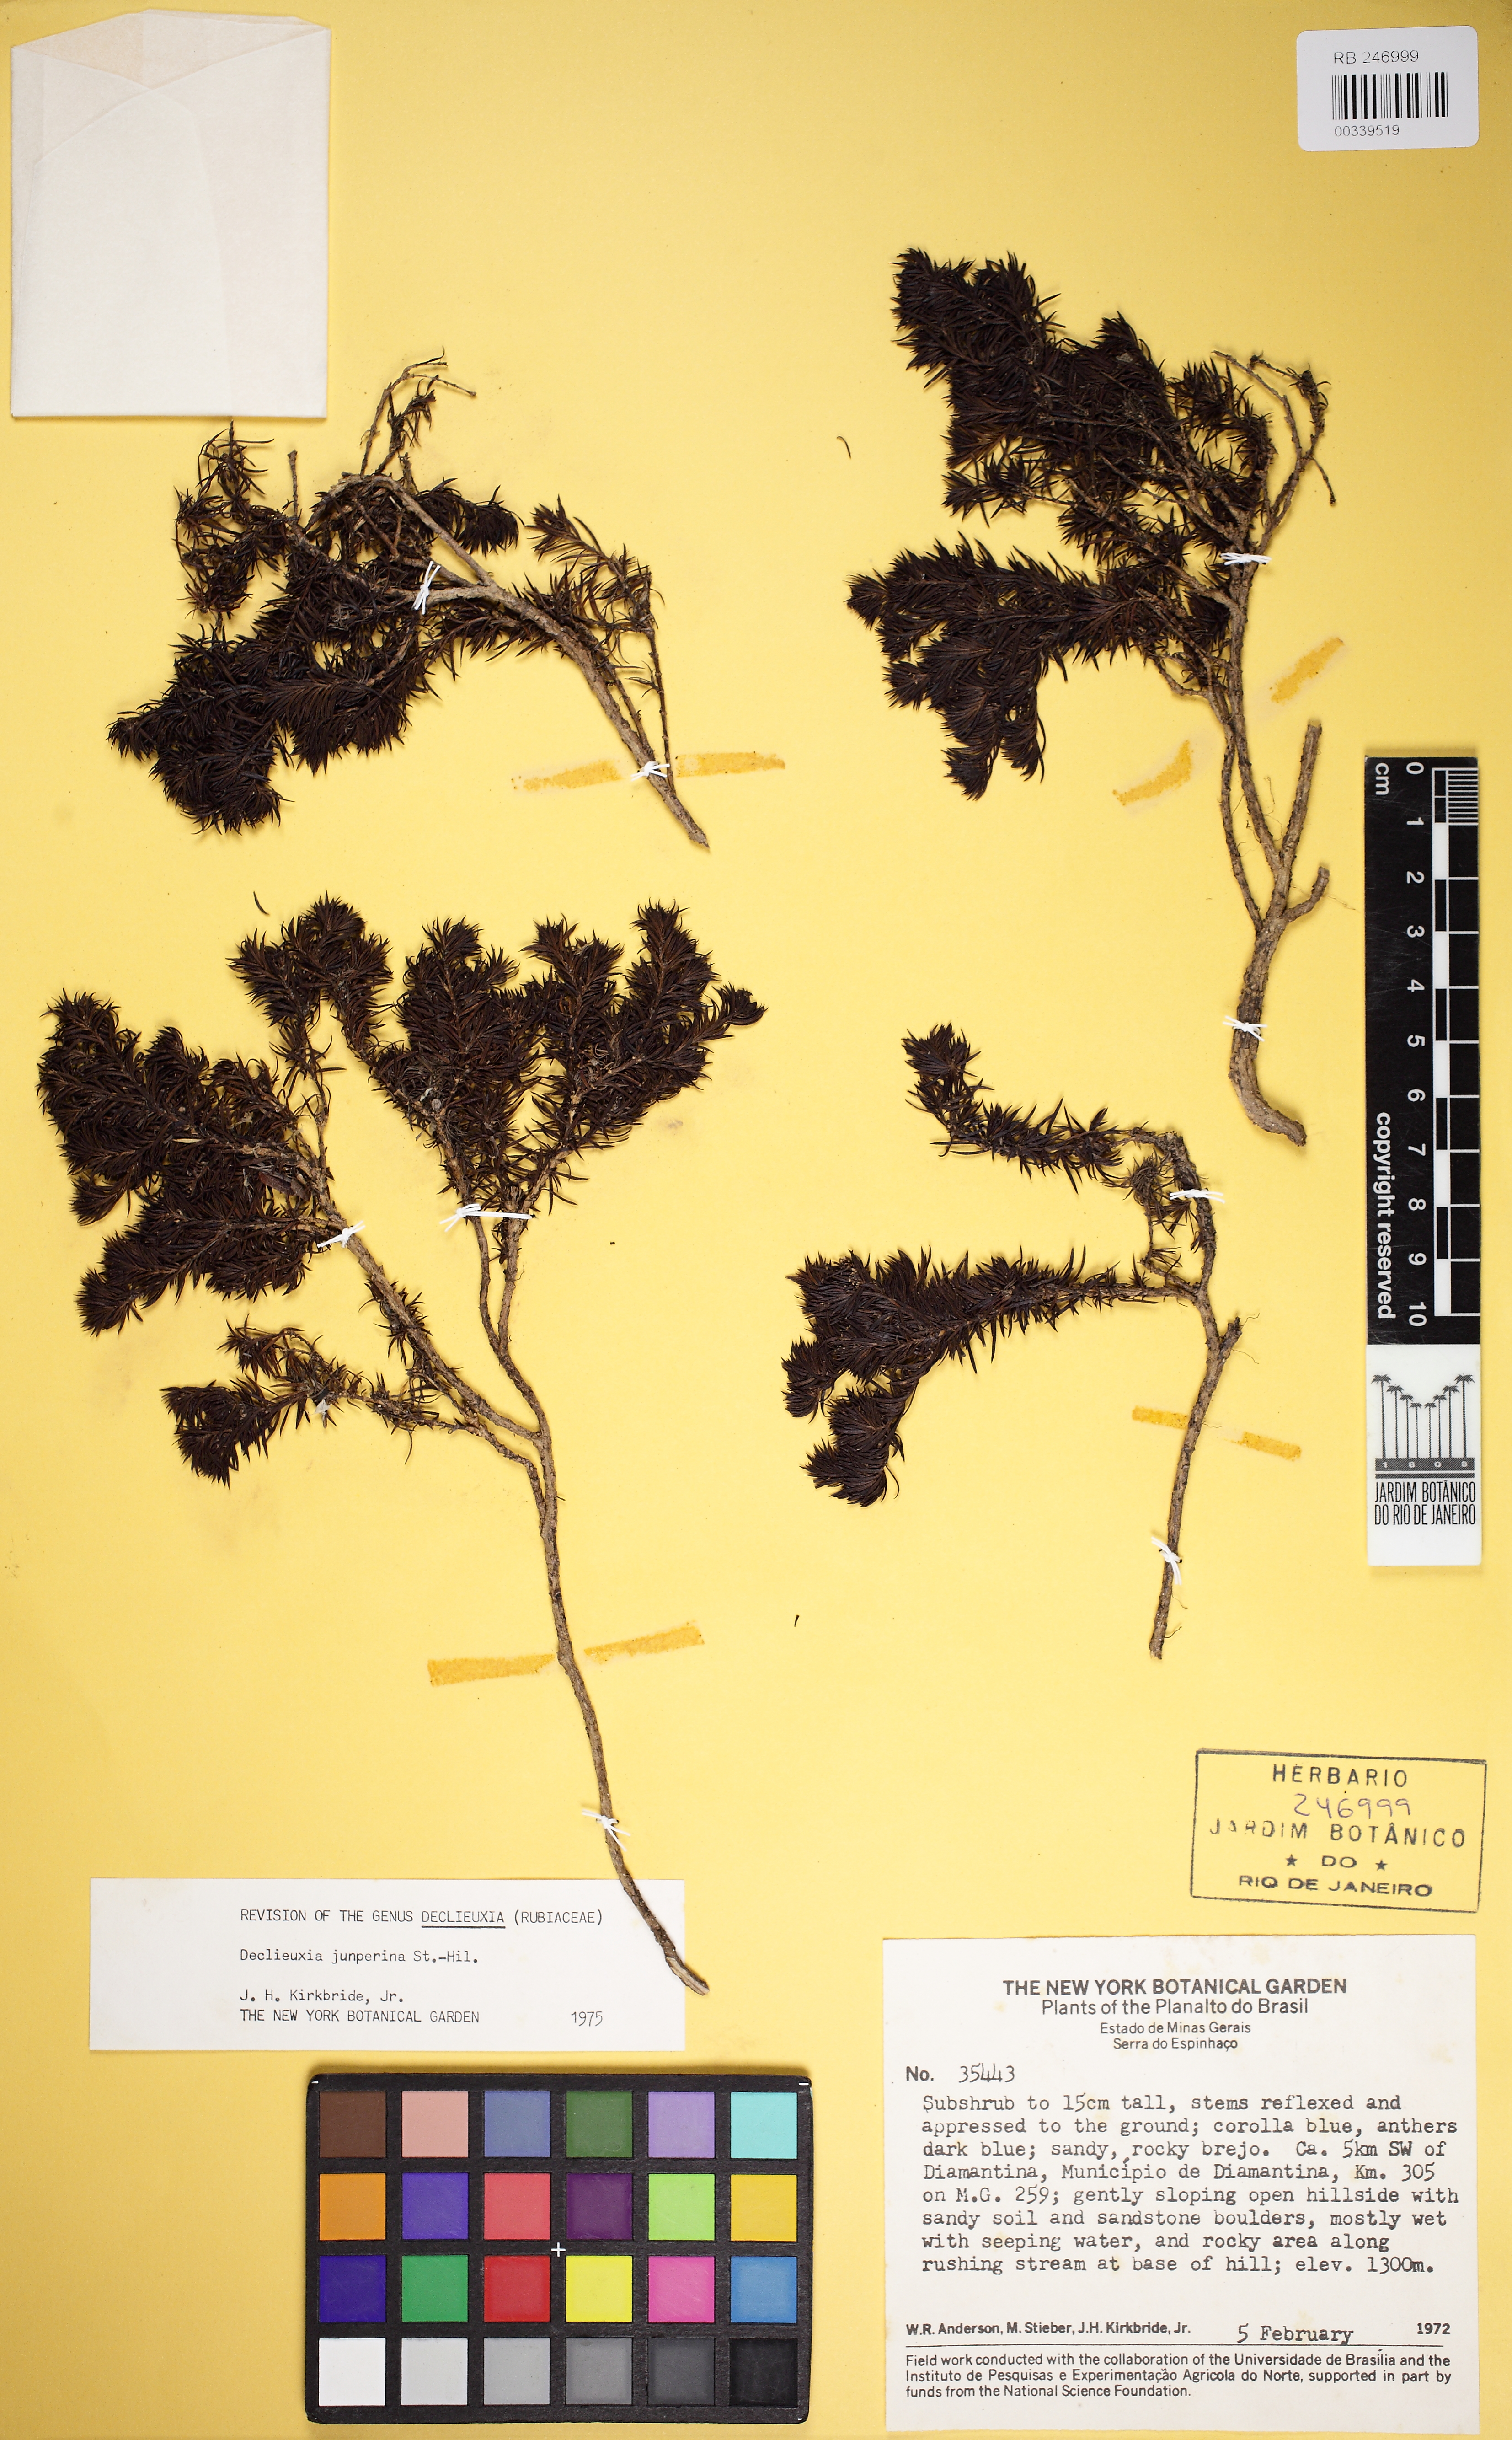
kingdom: Plantae
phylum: Tracheophyta
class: Magnoliopsida
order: Gentianales
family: Rubiaceae
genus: Declieuxia
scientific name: Declieuxia juniperina
